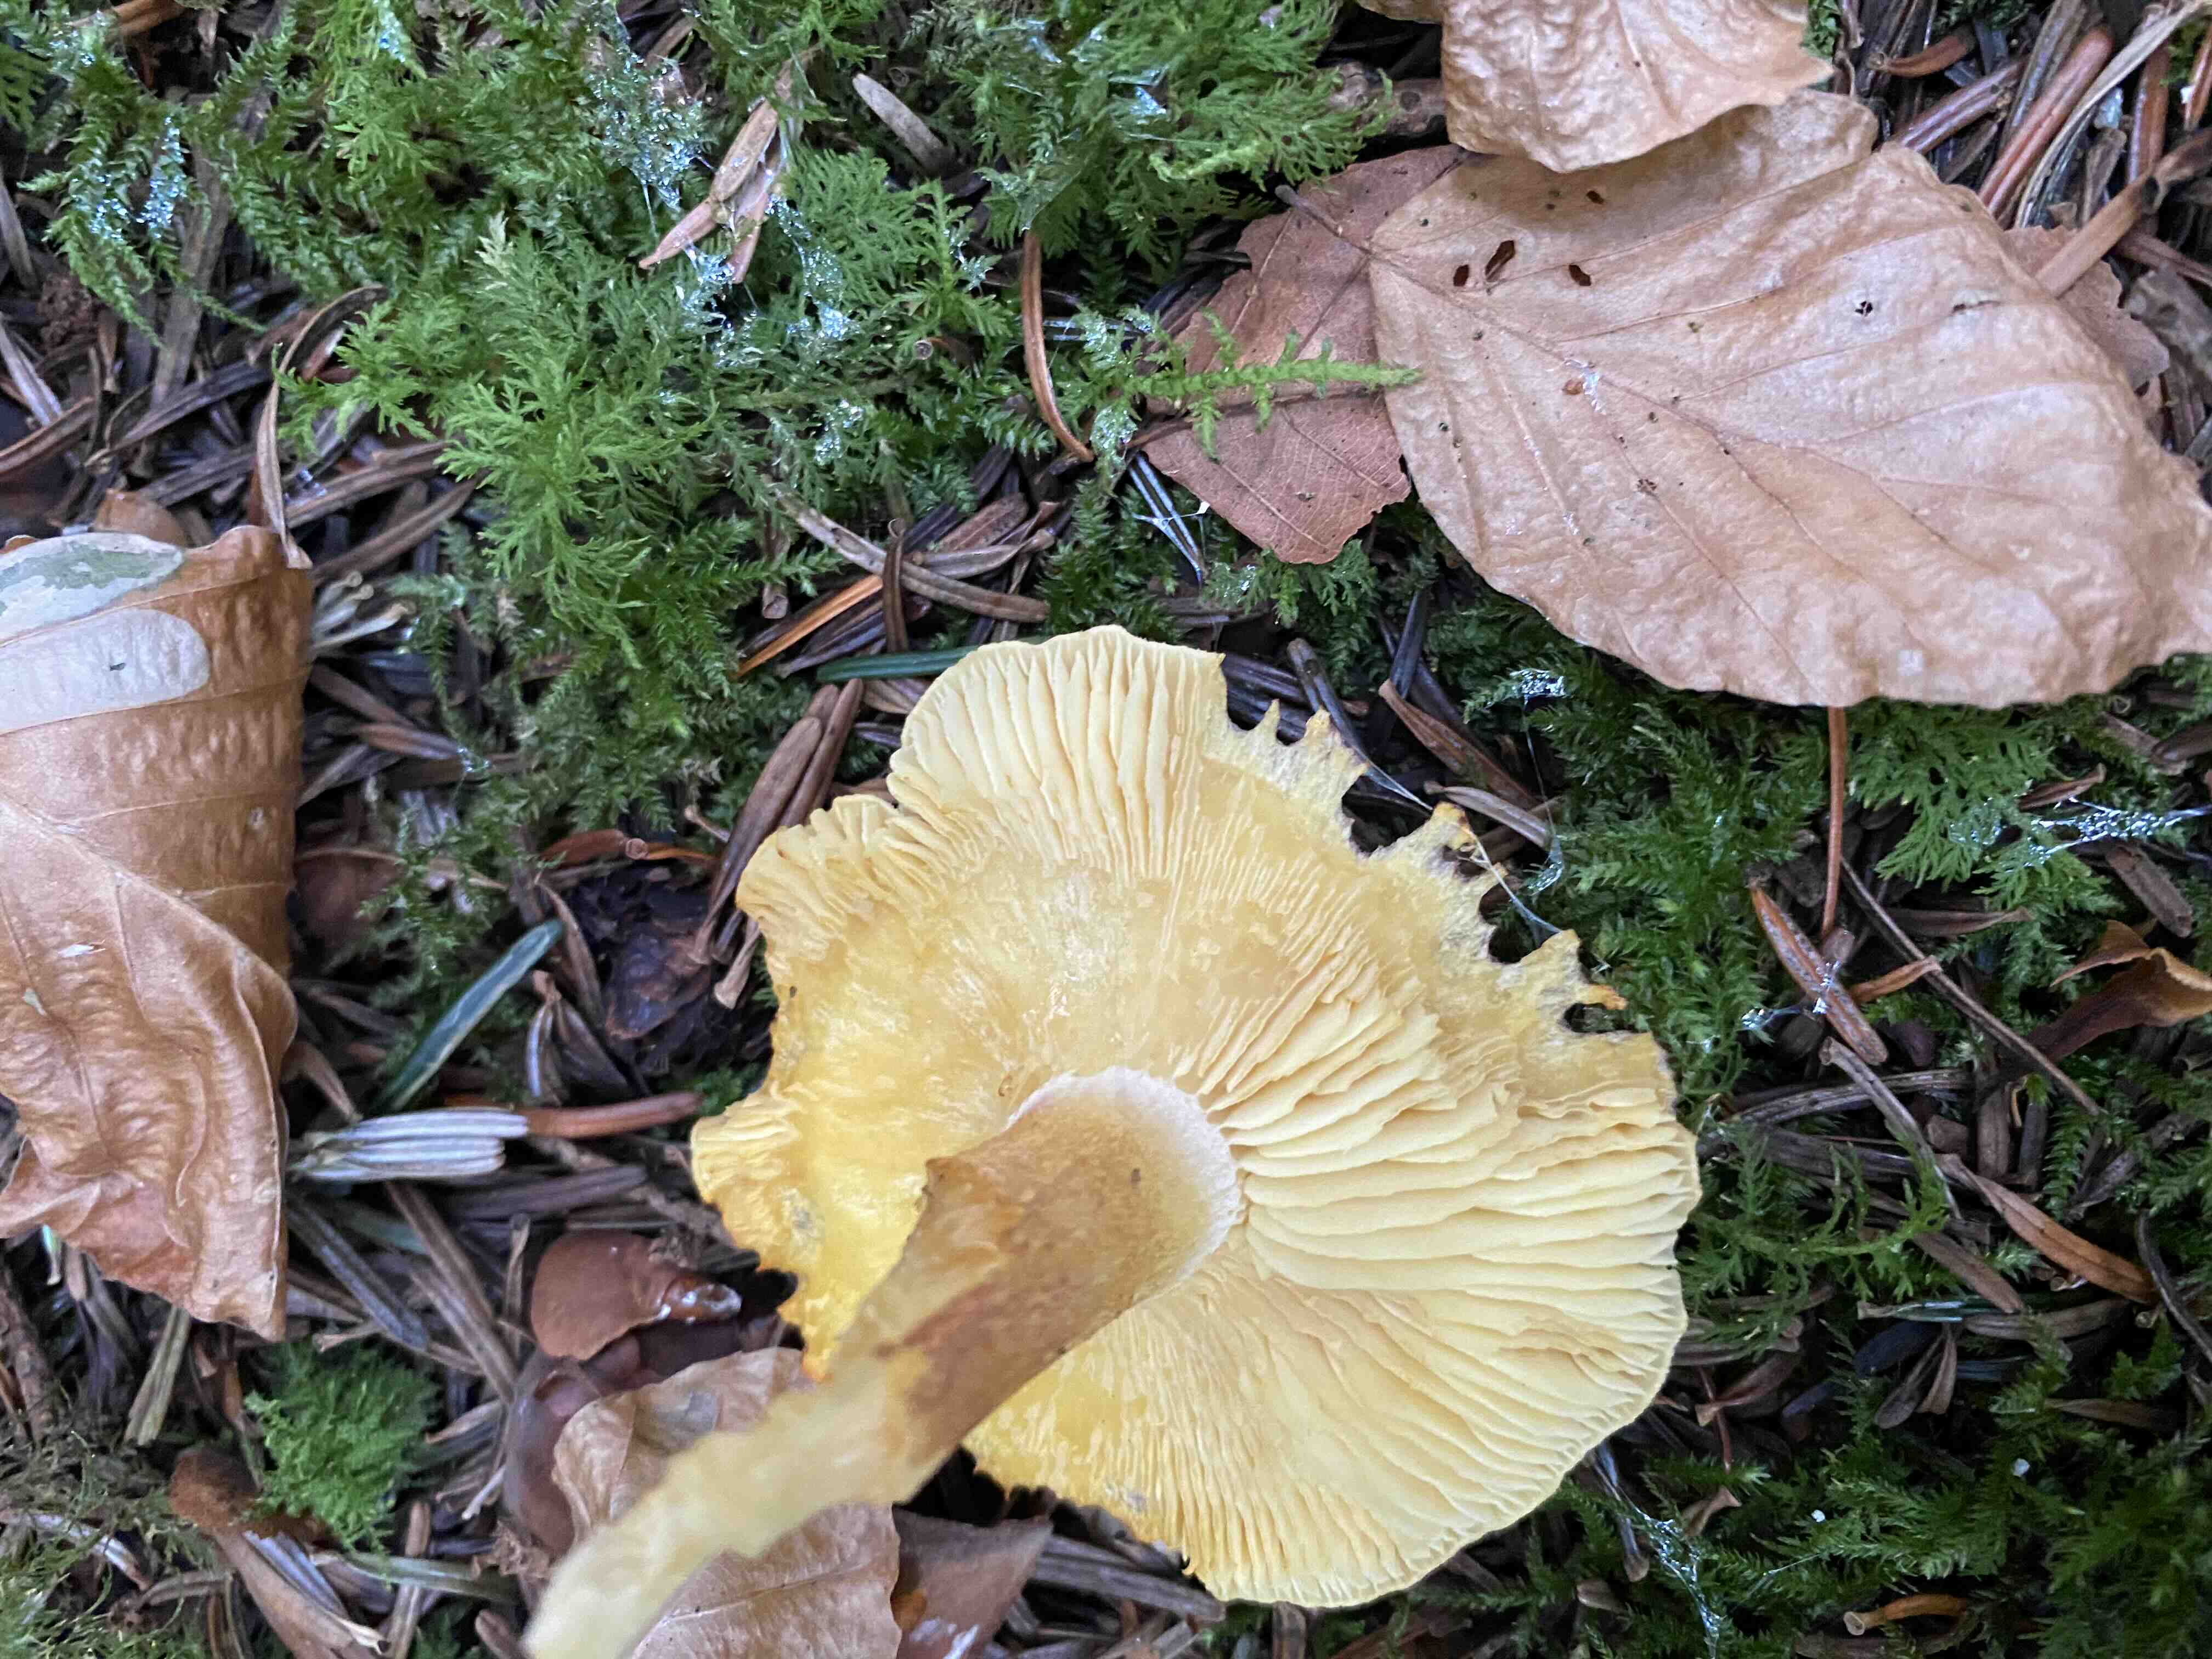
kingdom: Fungi
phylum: Basidiomycota
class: Agaricomycetes
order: Agaricales
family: Tricholomataceae
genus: Tricholomopsis
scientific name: Tricholomopsis rutilans
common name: purpur-væbnerhat
